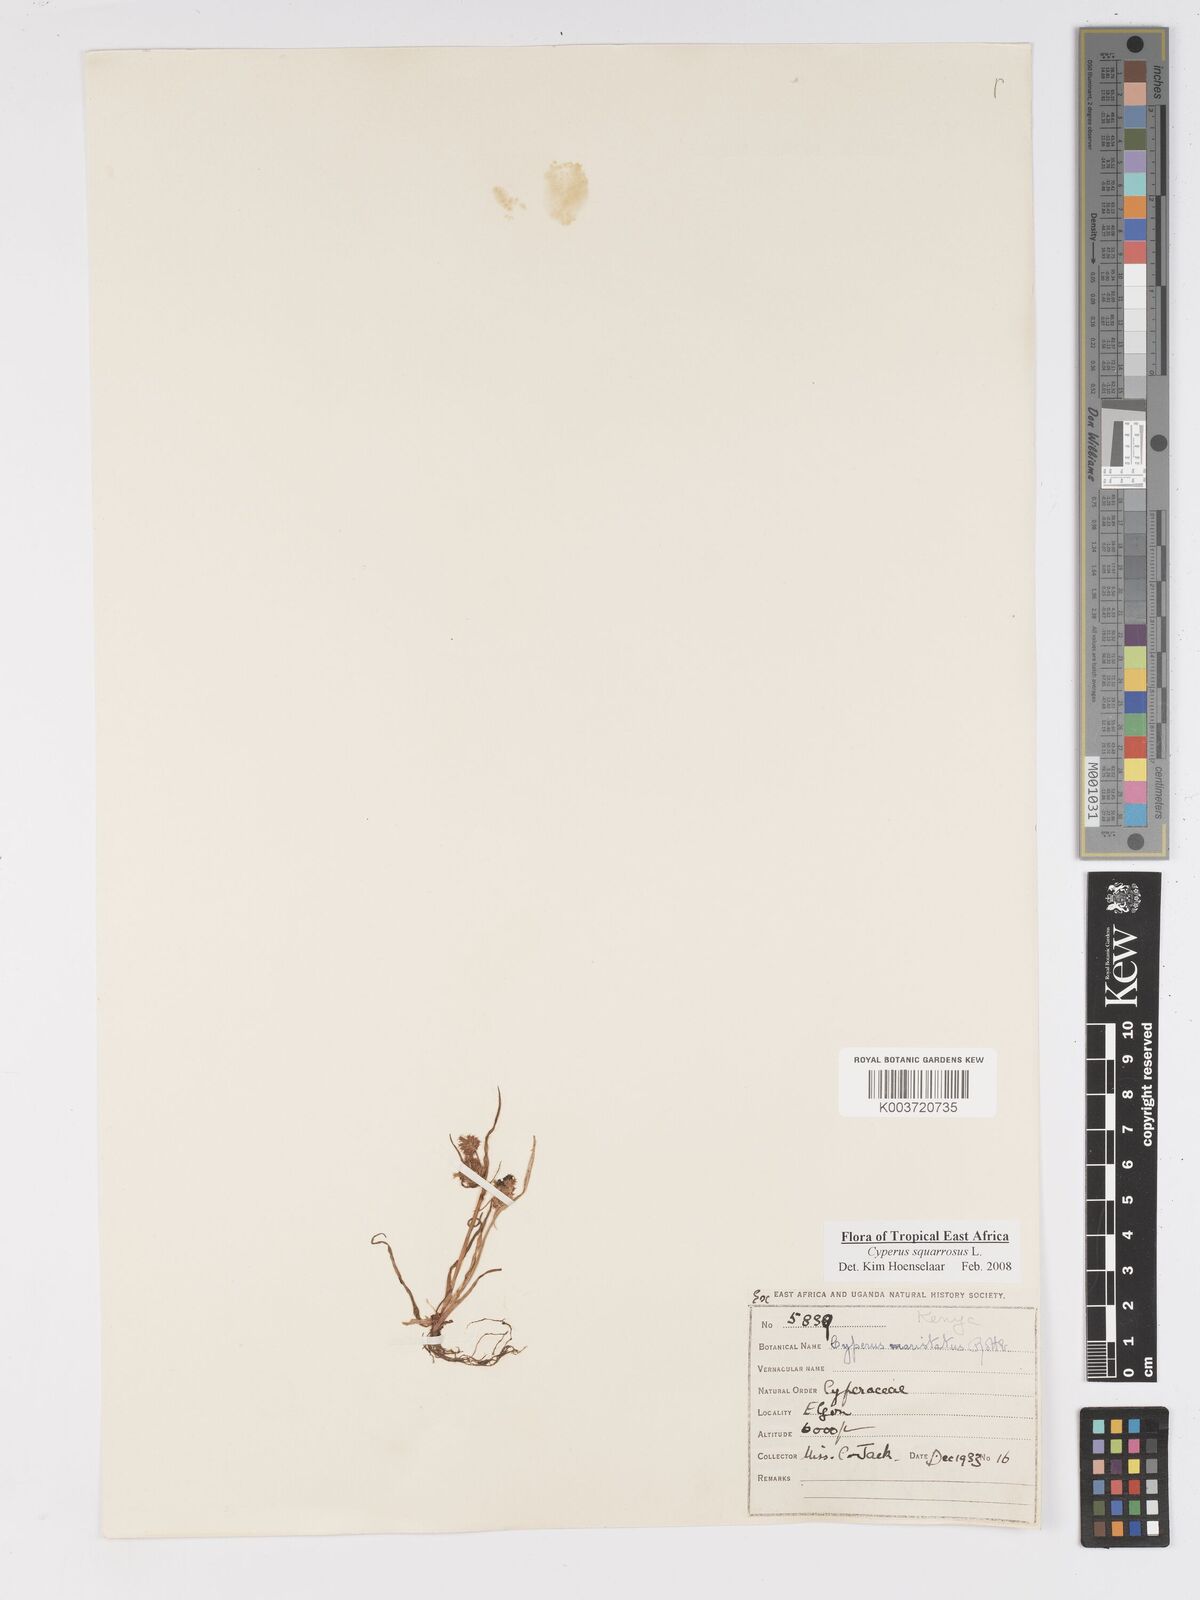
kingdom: Plantae
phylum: Tracheophyta
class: Liliopsida
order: Poales
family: Cyperaceae
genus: Cyperus
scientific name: Cyperus squarrosus
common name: Awned cyperus
